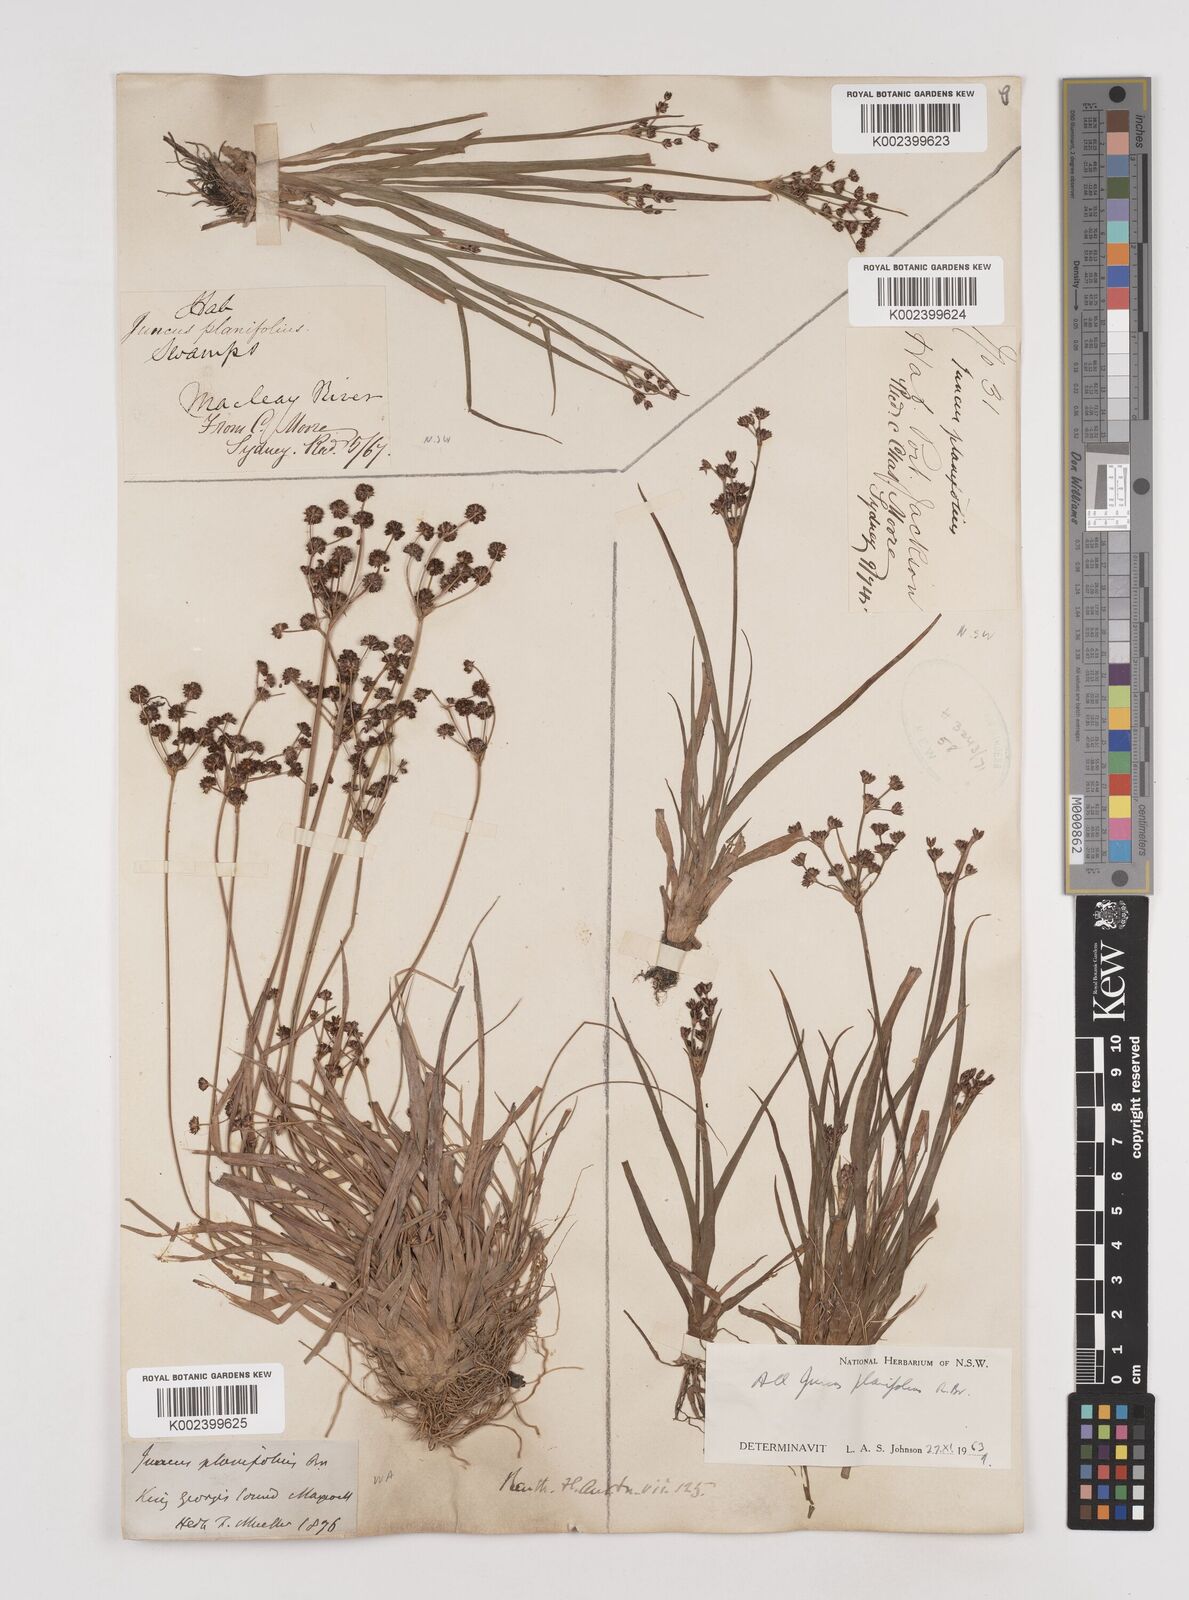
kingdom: Plantae
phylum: Tracheophyta
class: Liliopsida
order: Poales
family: Juncaceae
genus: Juncus
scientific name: Juncus planifolius
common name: Broadleaf rush
